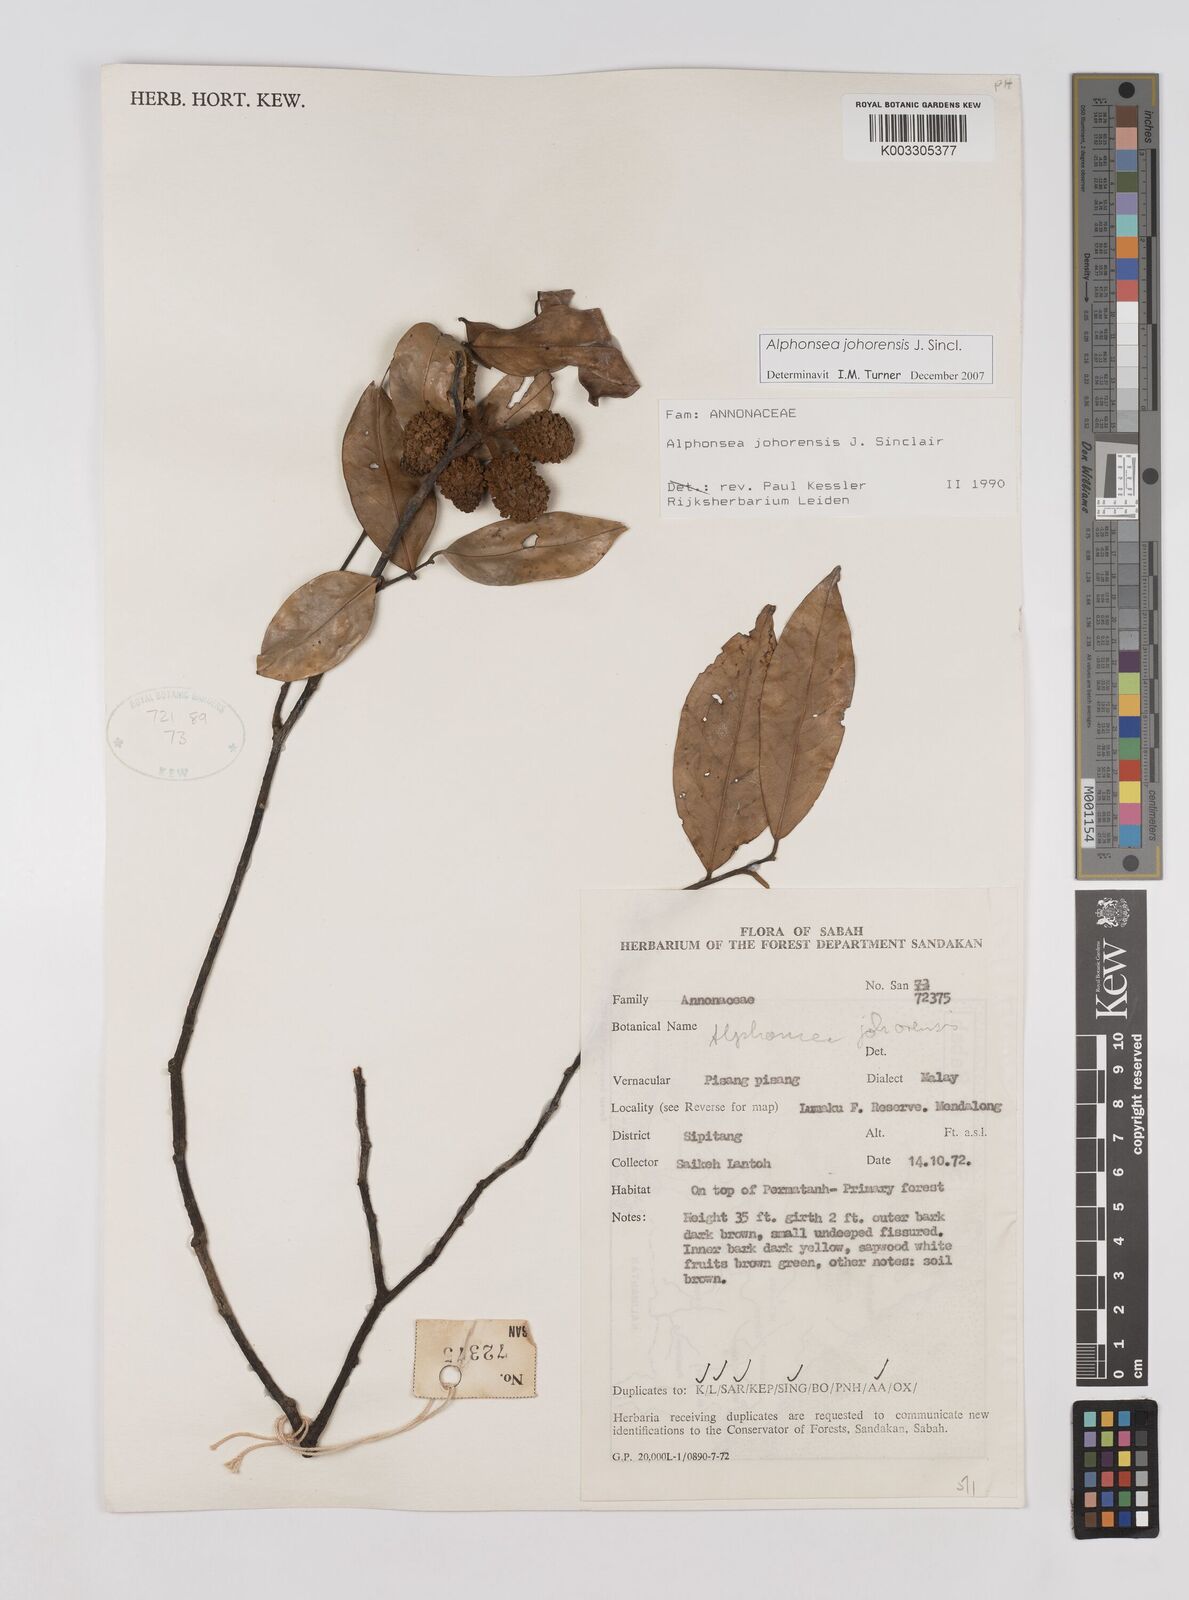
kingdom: Plantae
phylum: Tracheophyta
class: Magnoliopsida
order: Magnoliales
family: Annonaceae
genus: Alphonsea
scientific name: Alphonsea johorensis
